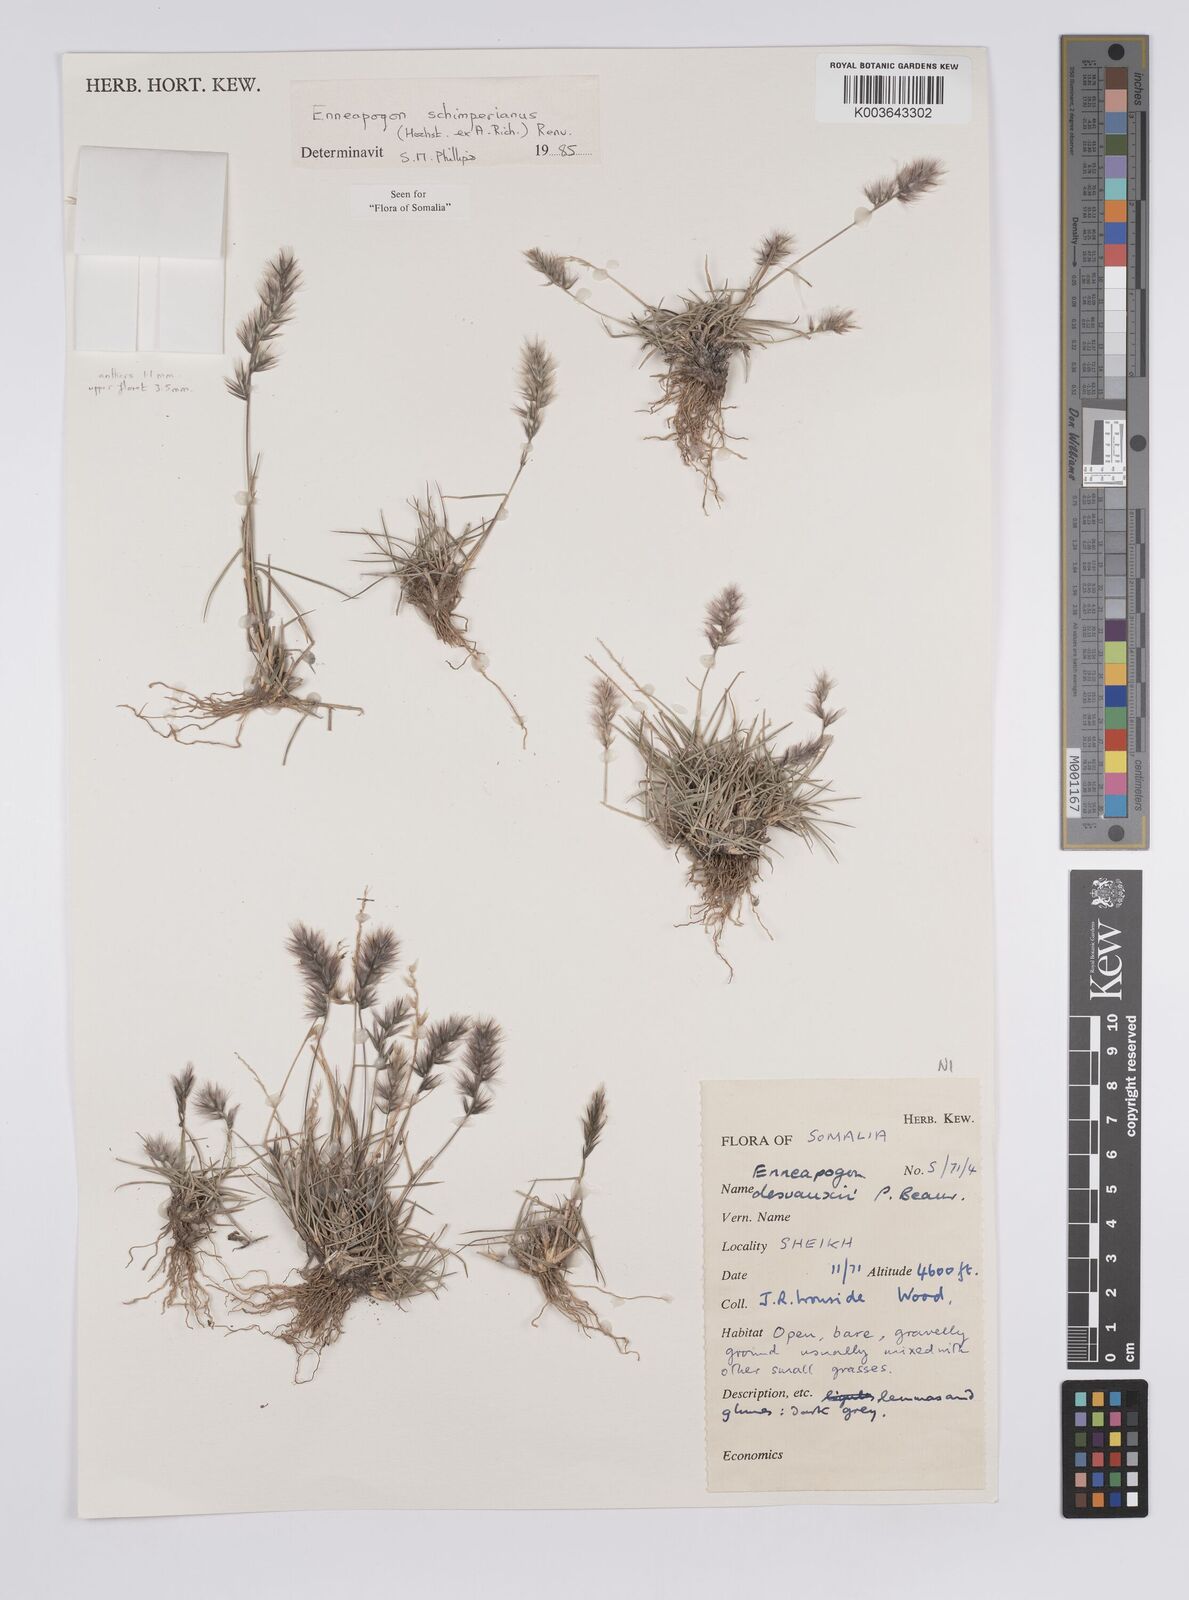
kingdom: Plantae
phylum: Tracheophyta
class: Liliopsida
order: Poales
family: Poaceae
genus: Enneapogon
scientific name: Enneapogon persicus
